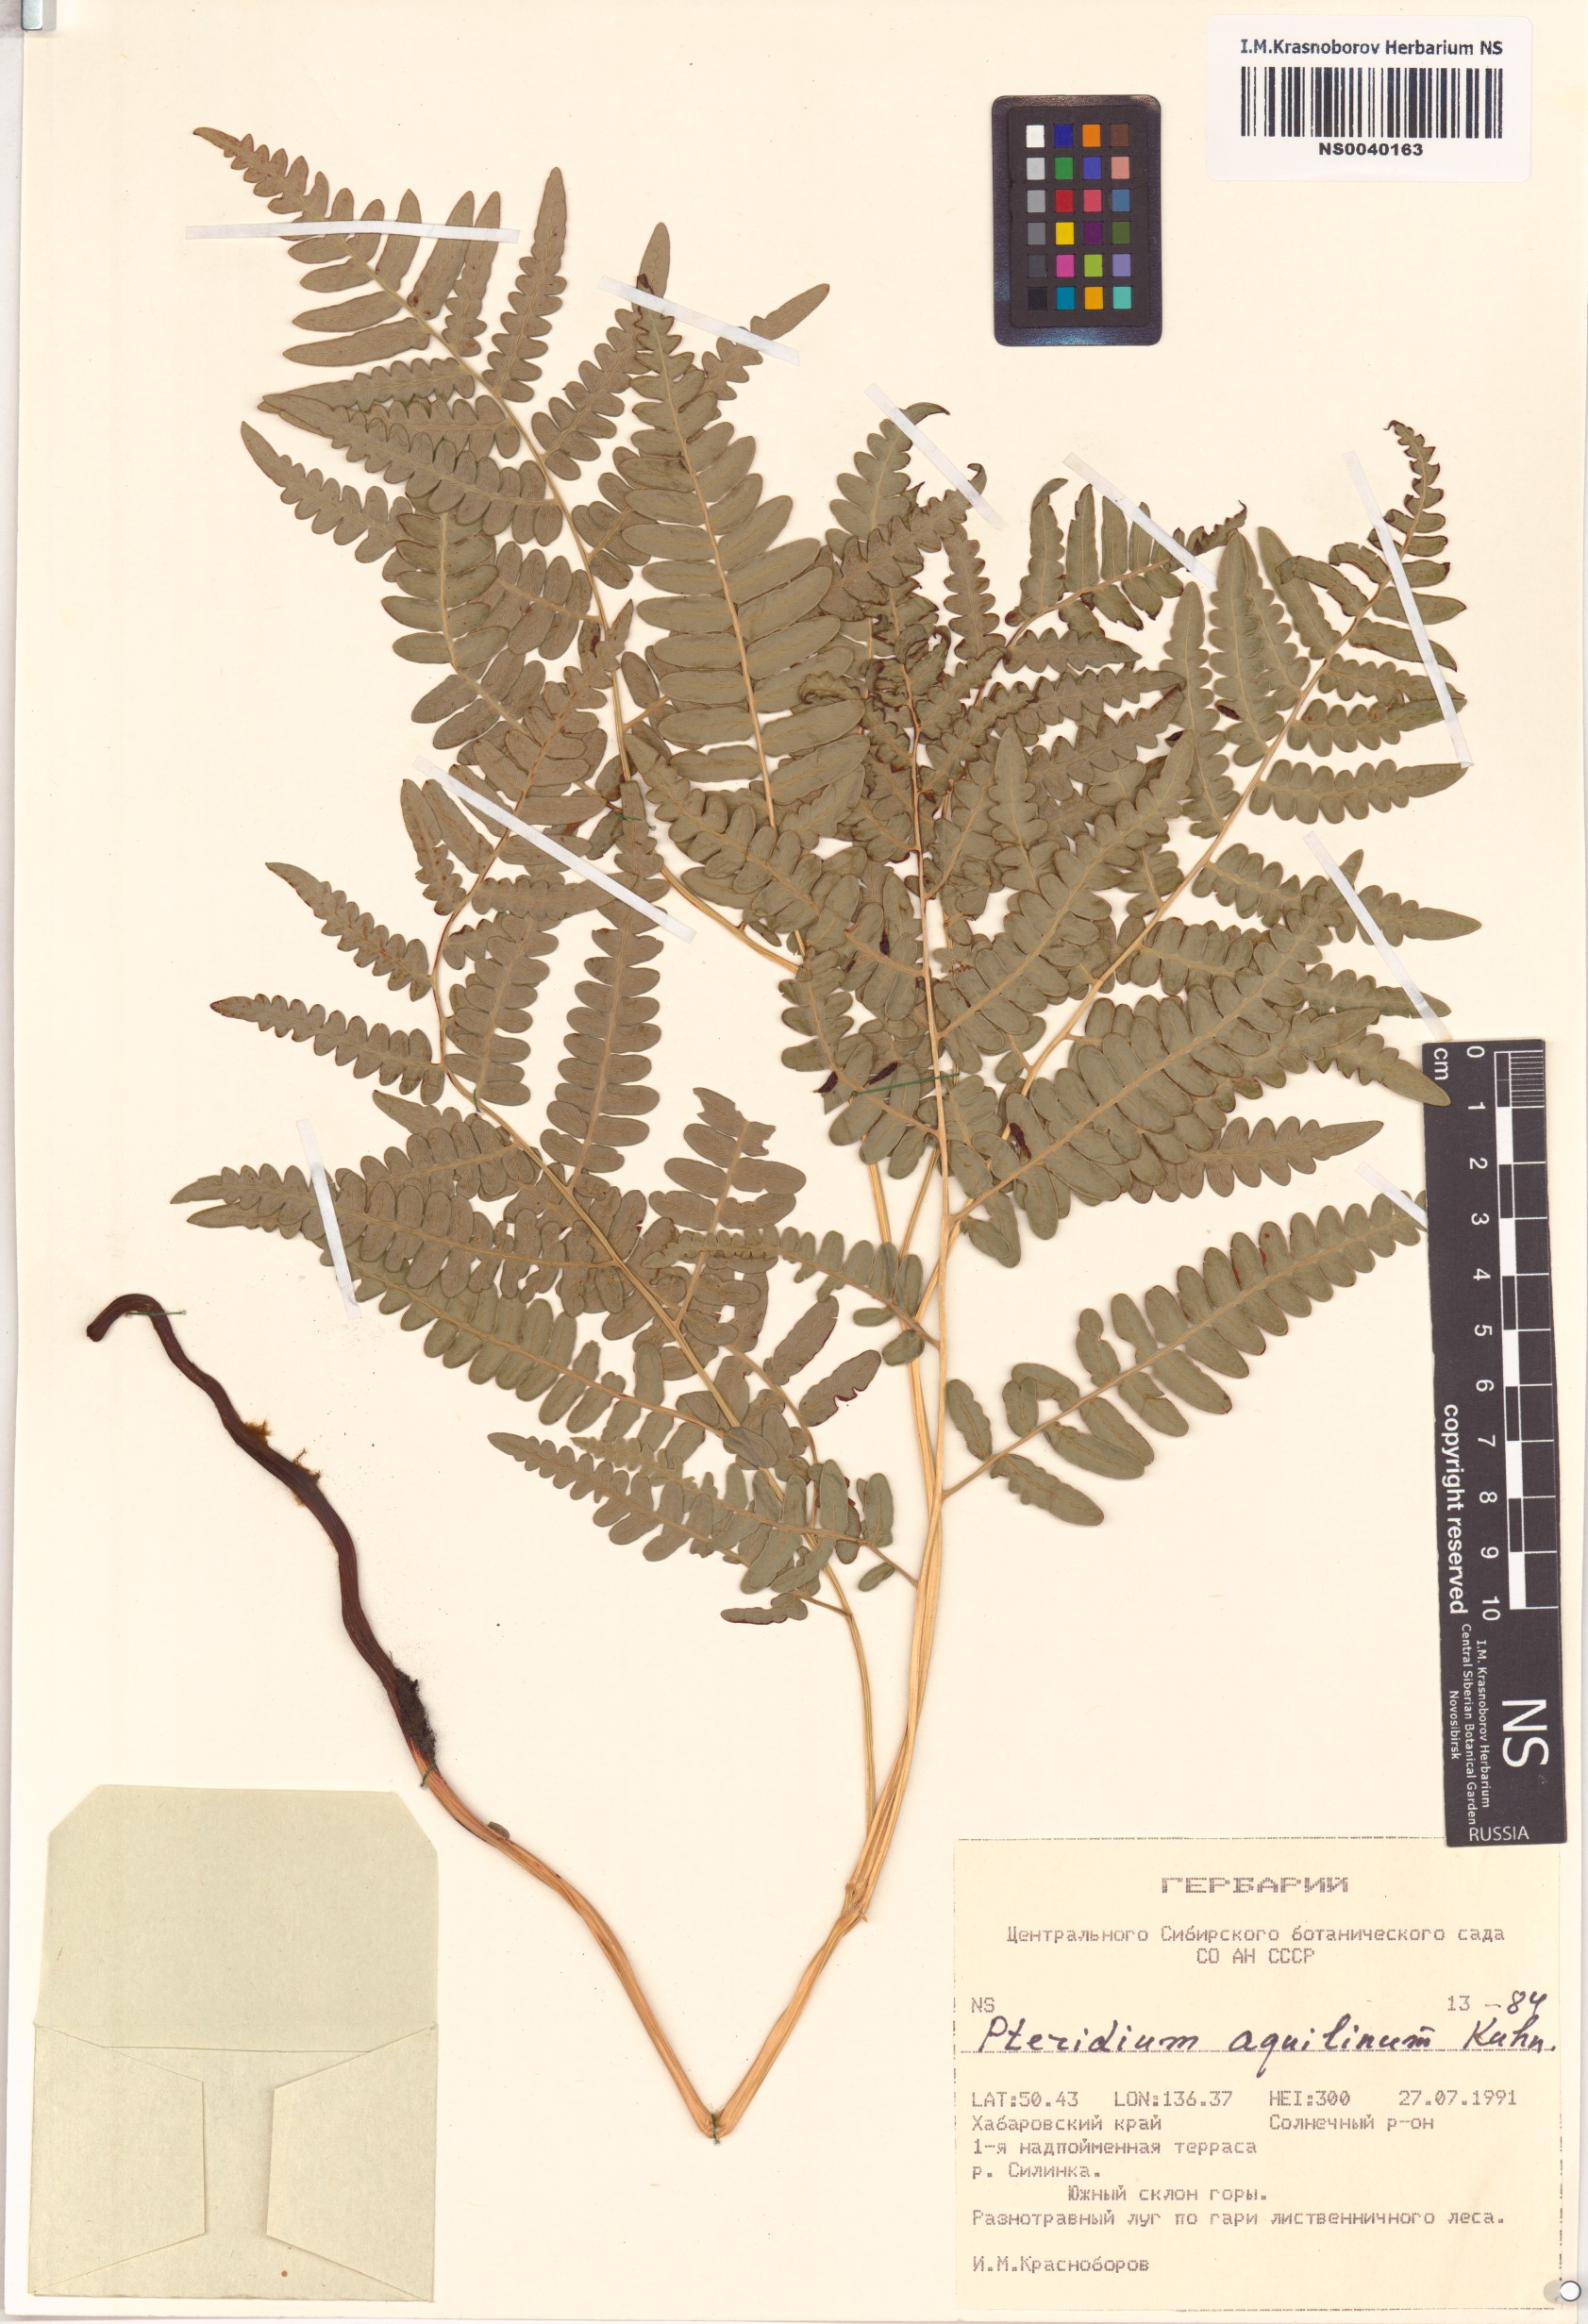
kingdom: Plantae
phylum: Tracheophyta
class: Polypodiopsida
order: Polypodiales
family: Dennstaedtiaceae
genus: Pteridium
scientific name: Pteridium aquilinum
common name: Bracken
